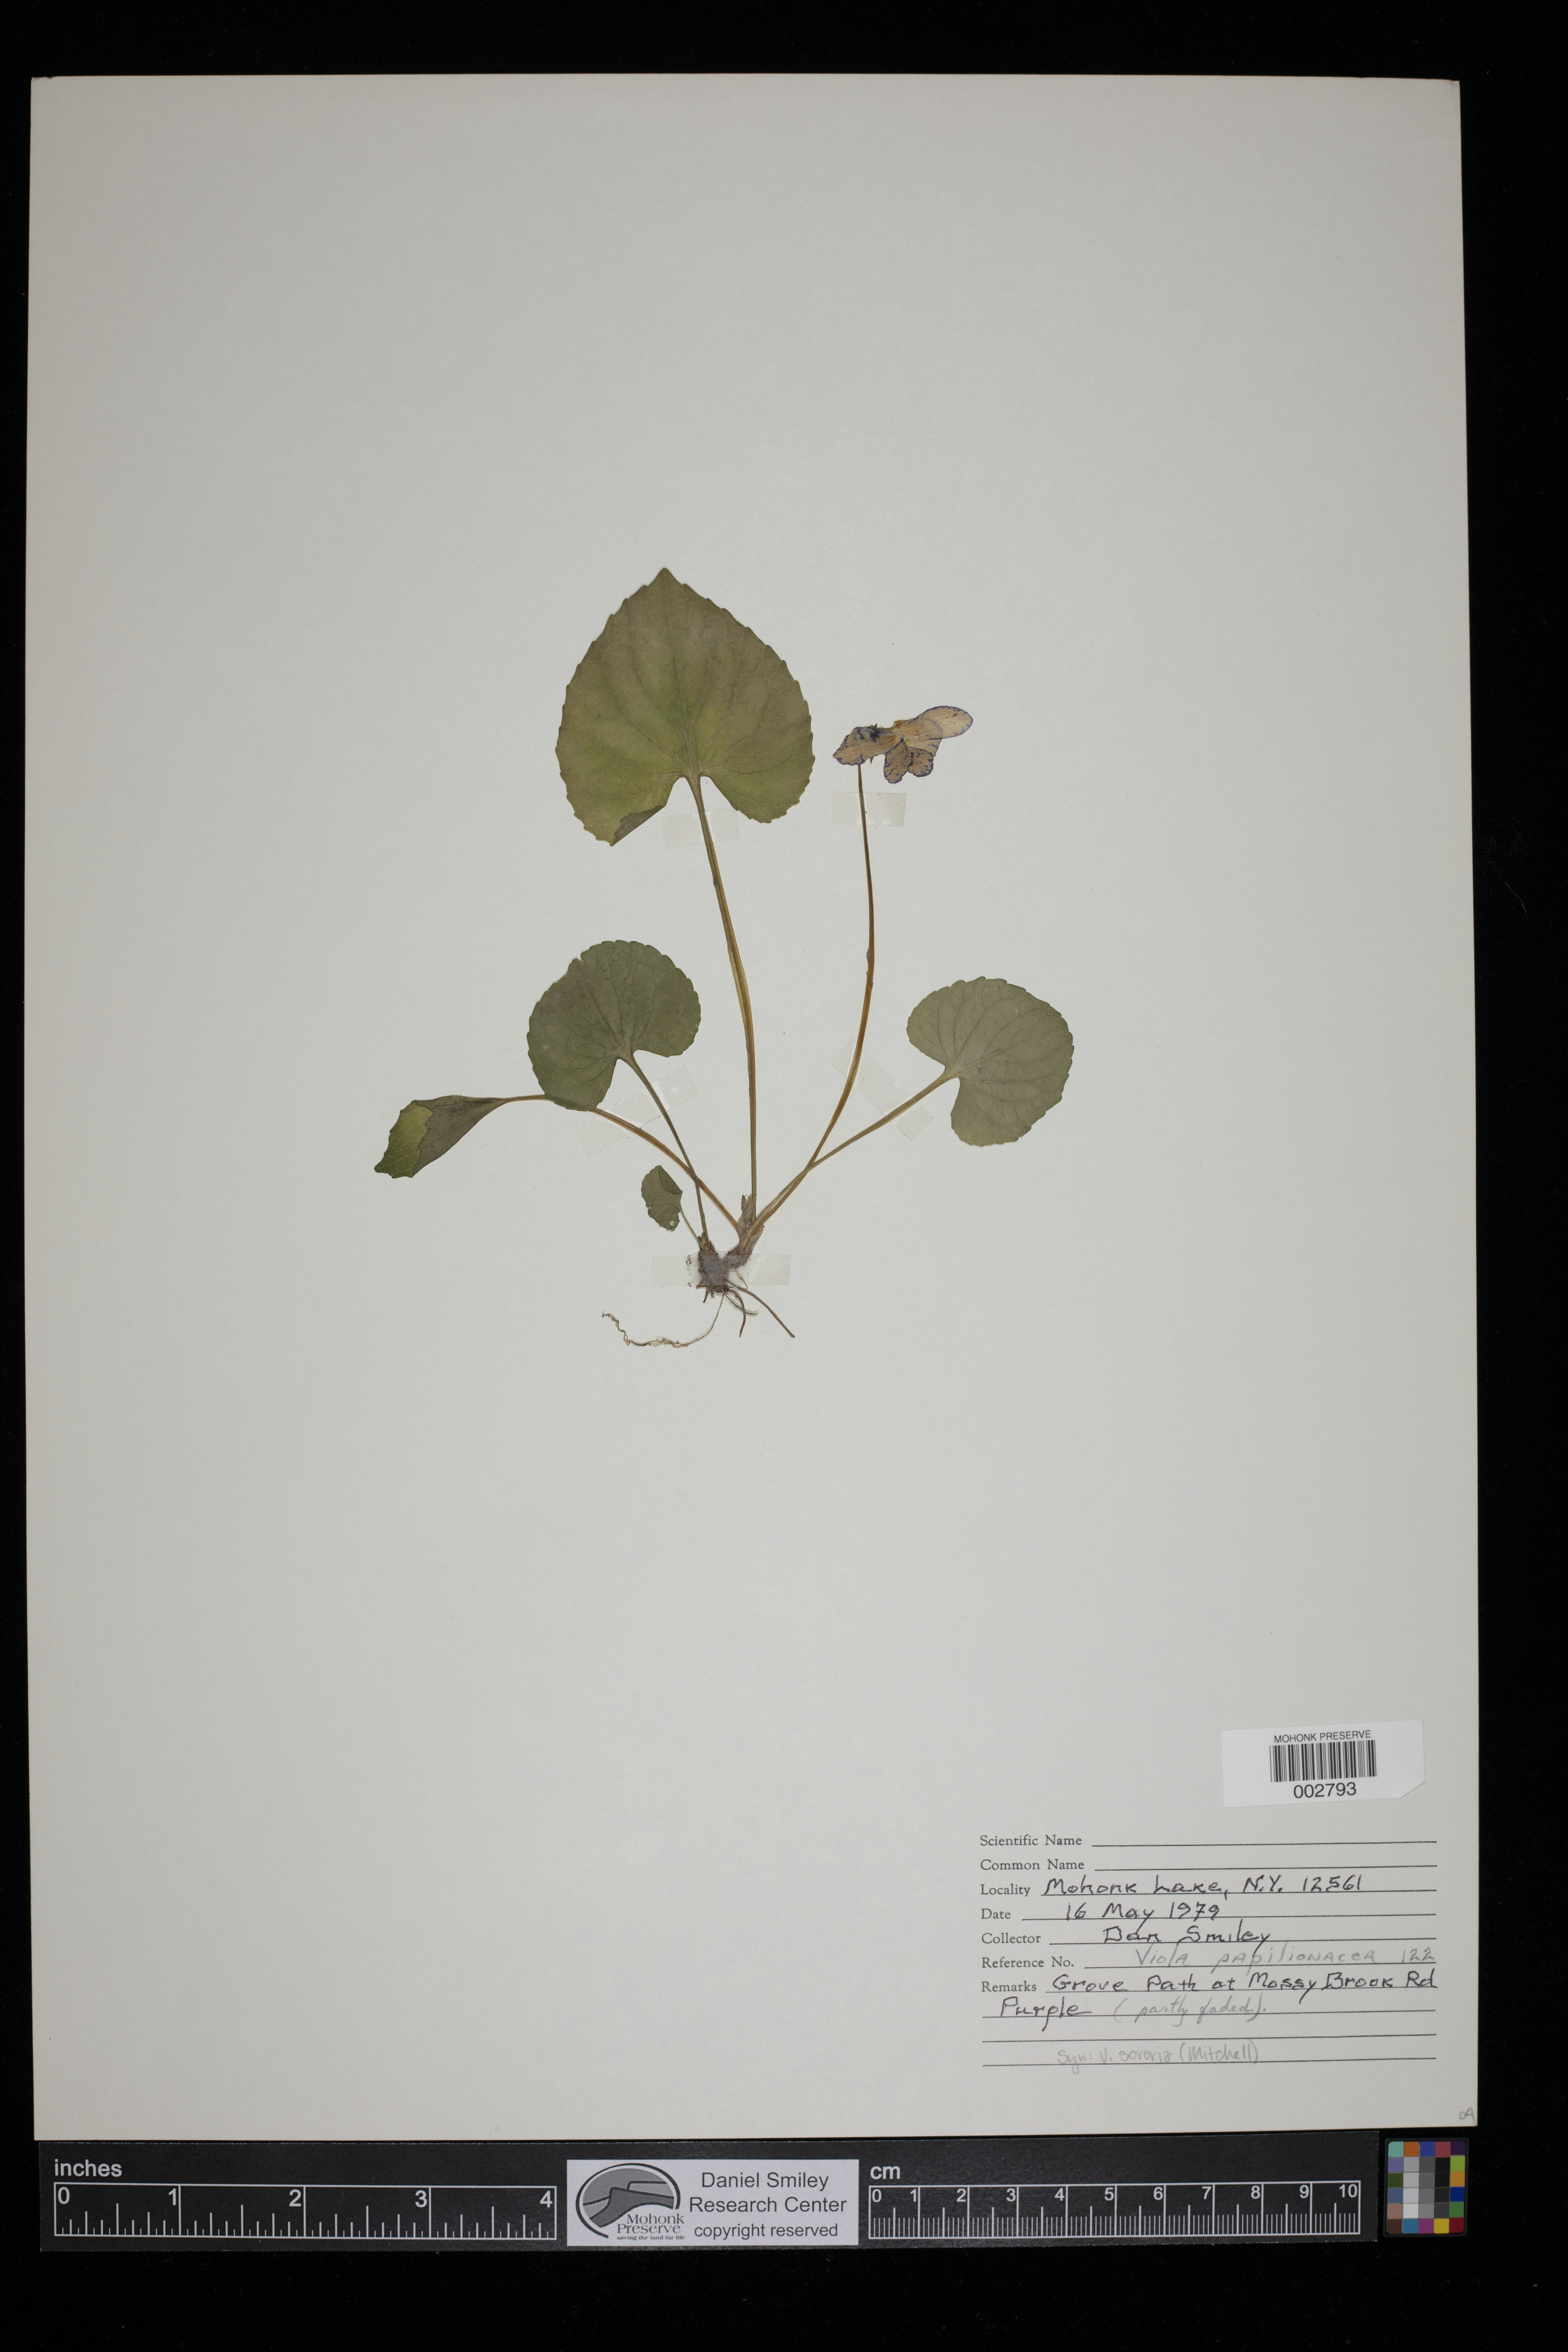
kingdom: Plantae
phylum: Tracheophyta
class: Magnoliopsida
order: Malpighiales
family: Violaceae
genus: Viola
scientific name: Viola sororia
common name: Dooryard violet
